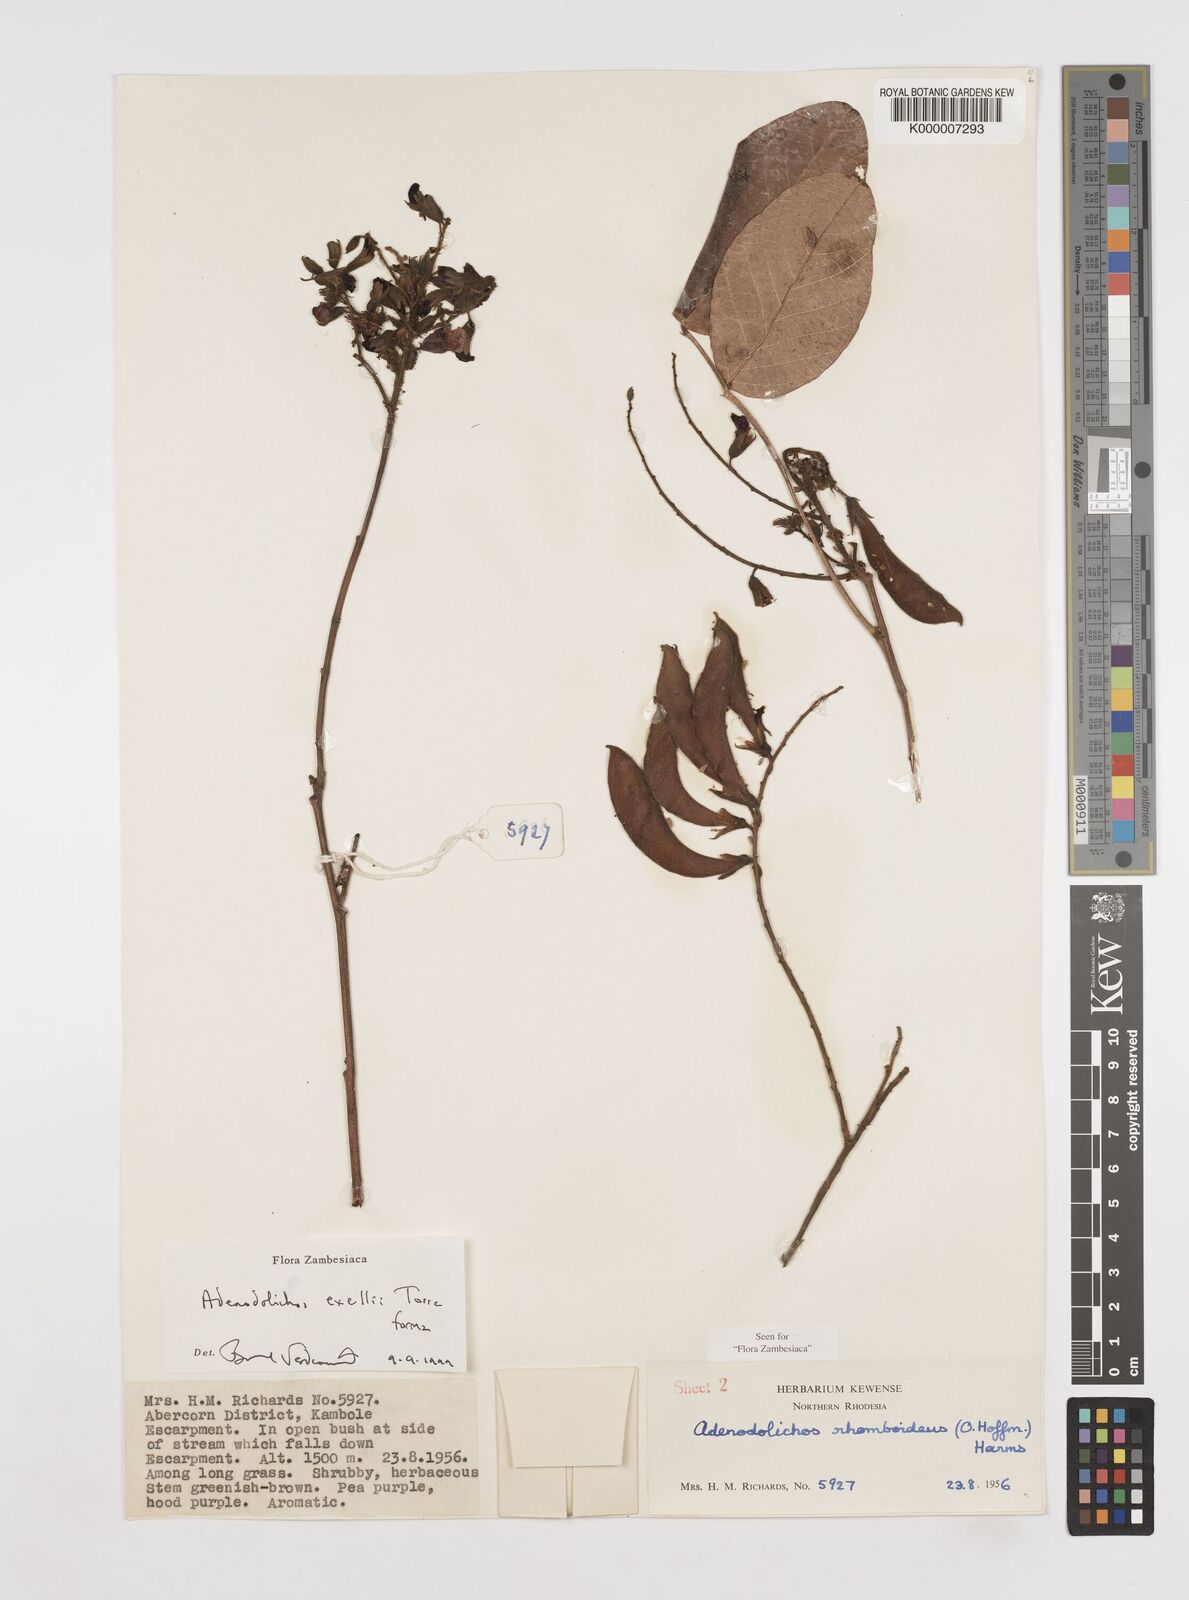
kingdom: Plantae
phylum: Tracheophyta
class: Magnoliopsida
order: Fabales
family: Fabaceae
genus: Adenodolichos
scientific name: Adenodolichos exellii
